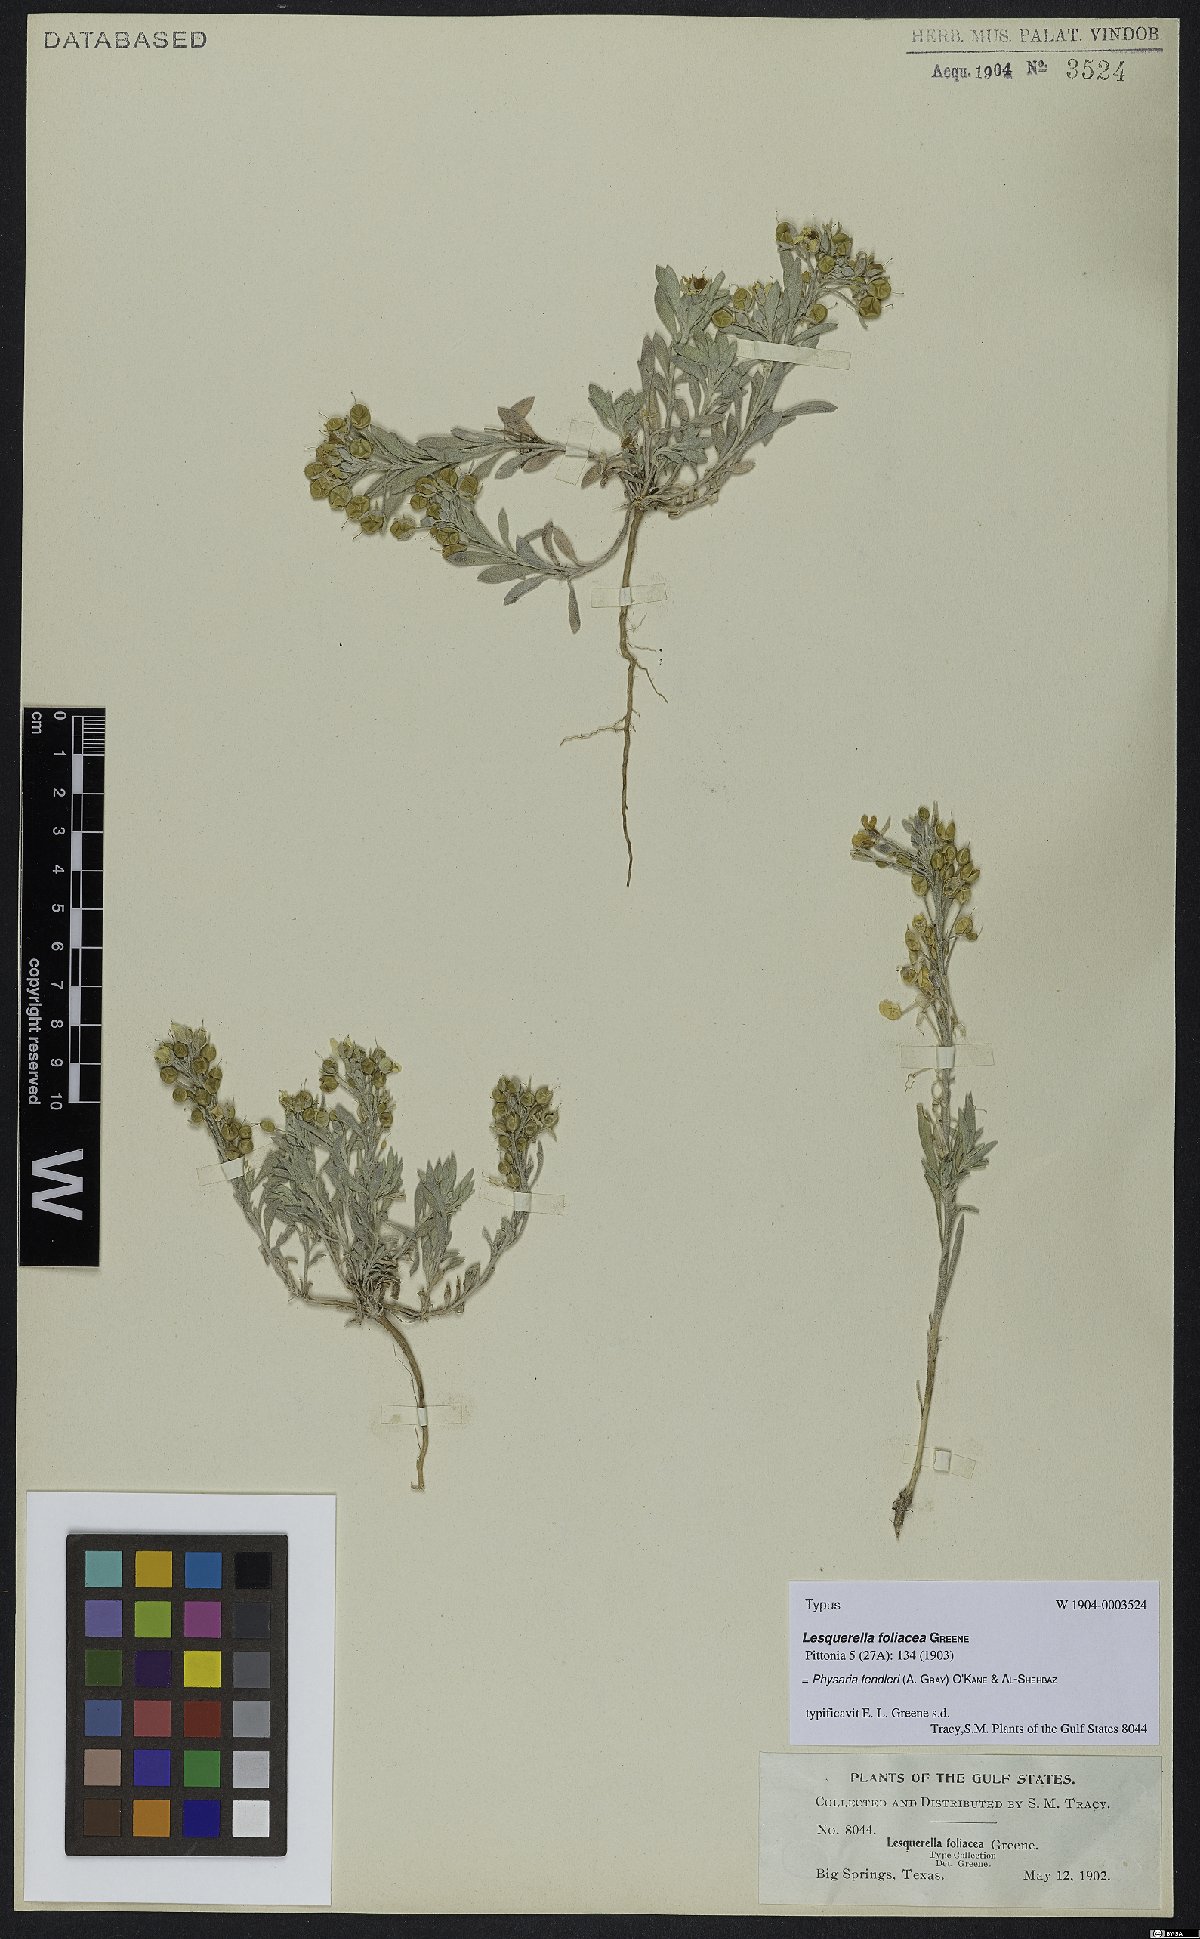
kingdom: Plantae
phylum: Tracheophyta
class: Magnoliopsida
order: Brassicales
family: Brassicaceae
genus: Physaria
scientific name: Physaria fendleri
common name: Fendler's bladderpod
